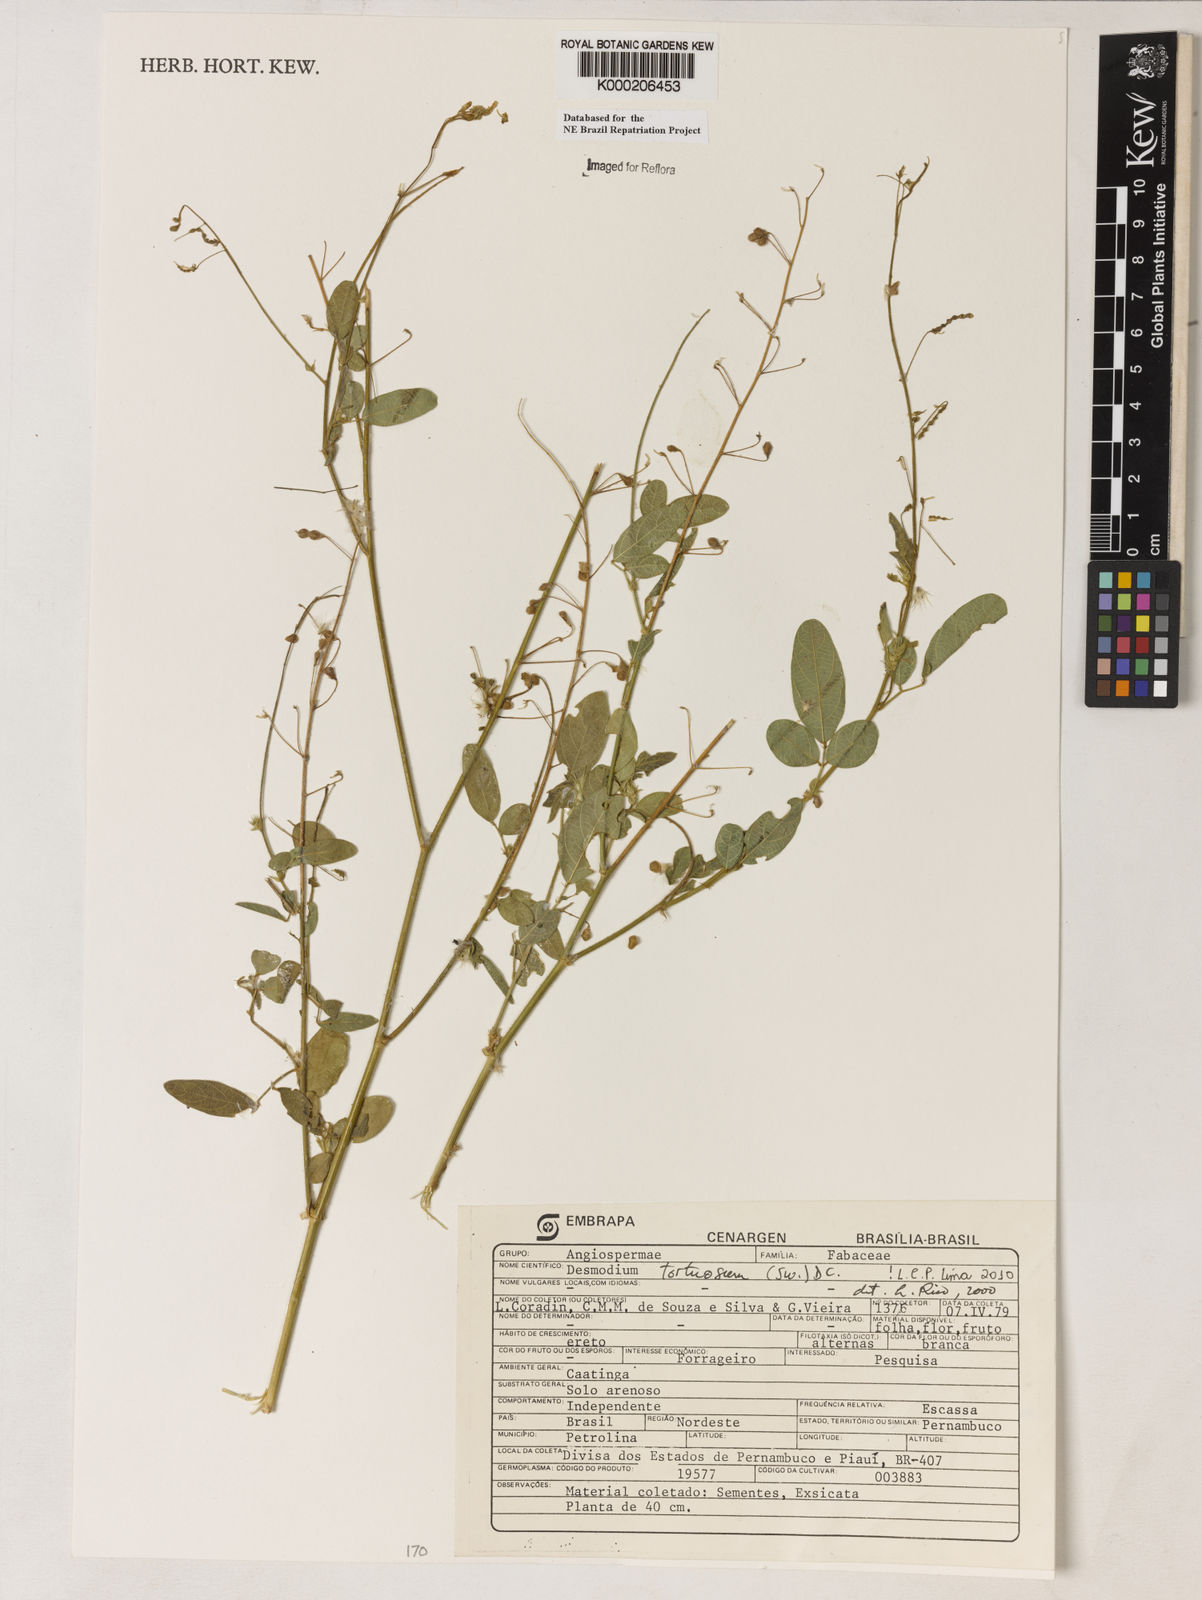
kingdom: Plantae
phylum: Tracheophyta
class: Magnoliopsida
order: Fabales
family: Fabaceae
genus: Desmodium
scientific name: Desmodium tortuosum
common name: Dixie ticktrefoil
